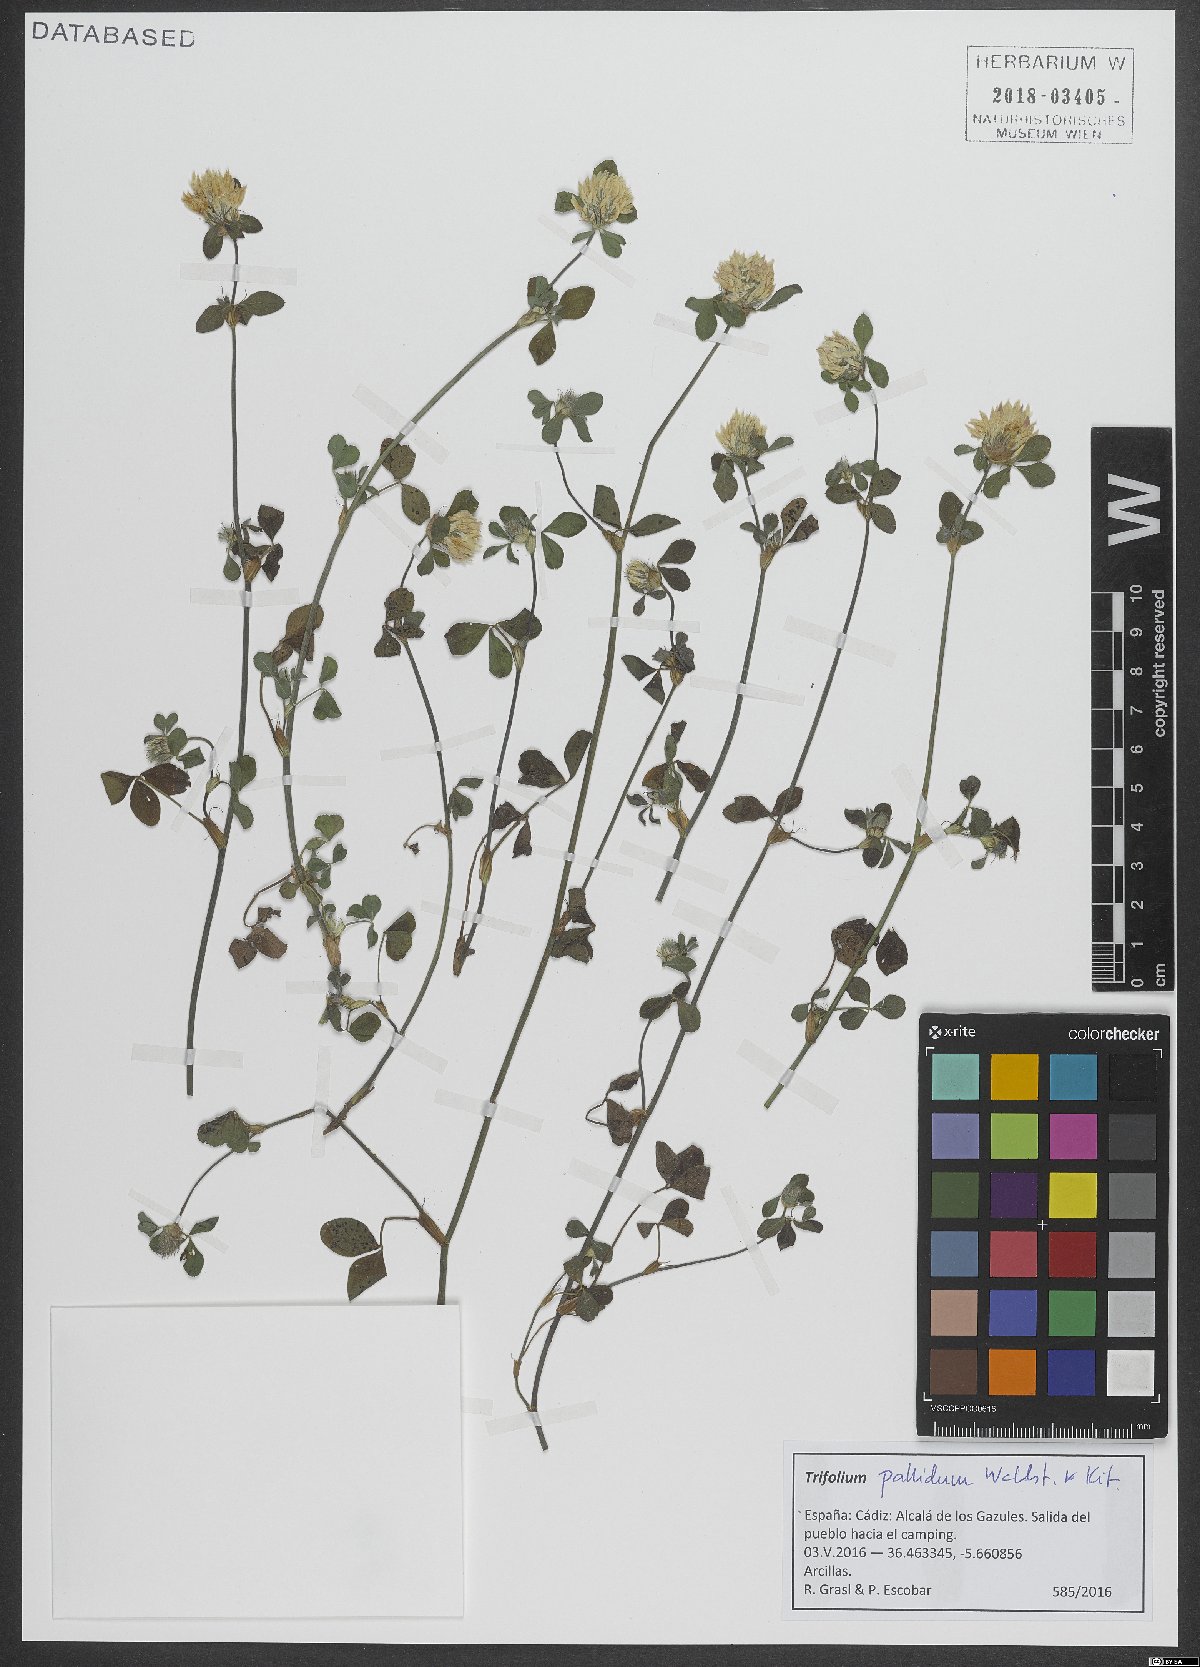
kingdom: Plantae
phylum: Tracheophyta
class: Magnoliopsida
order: Fabales
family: Fabaceae
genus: Trifolium
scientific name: Trifolium pallidum
